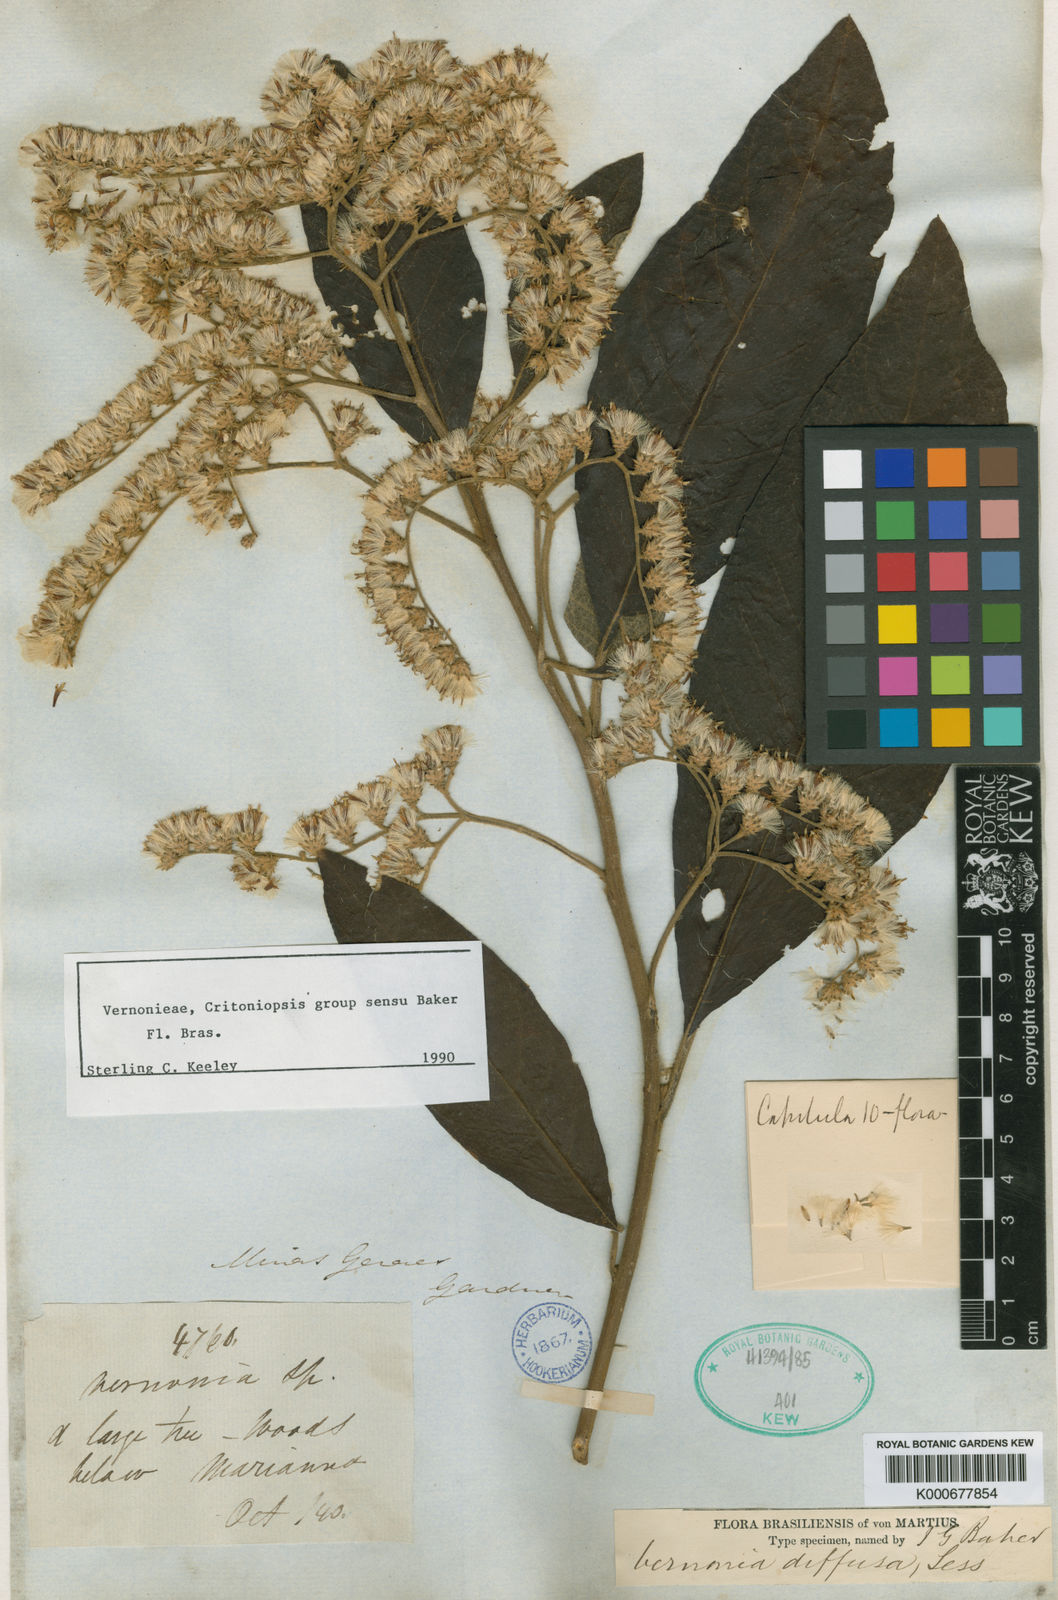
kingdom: Plantae
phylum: Tracheophyta
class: Magnoliopsida
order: Asterales
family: Asteraceae
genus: Vernonanthura
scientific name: Vernonanthura divaricata
